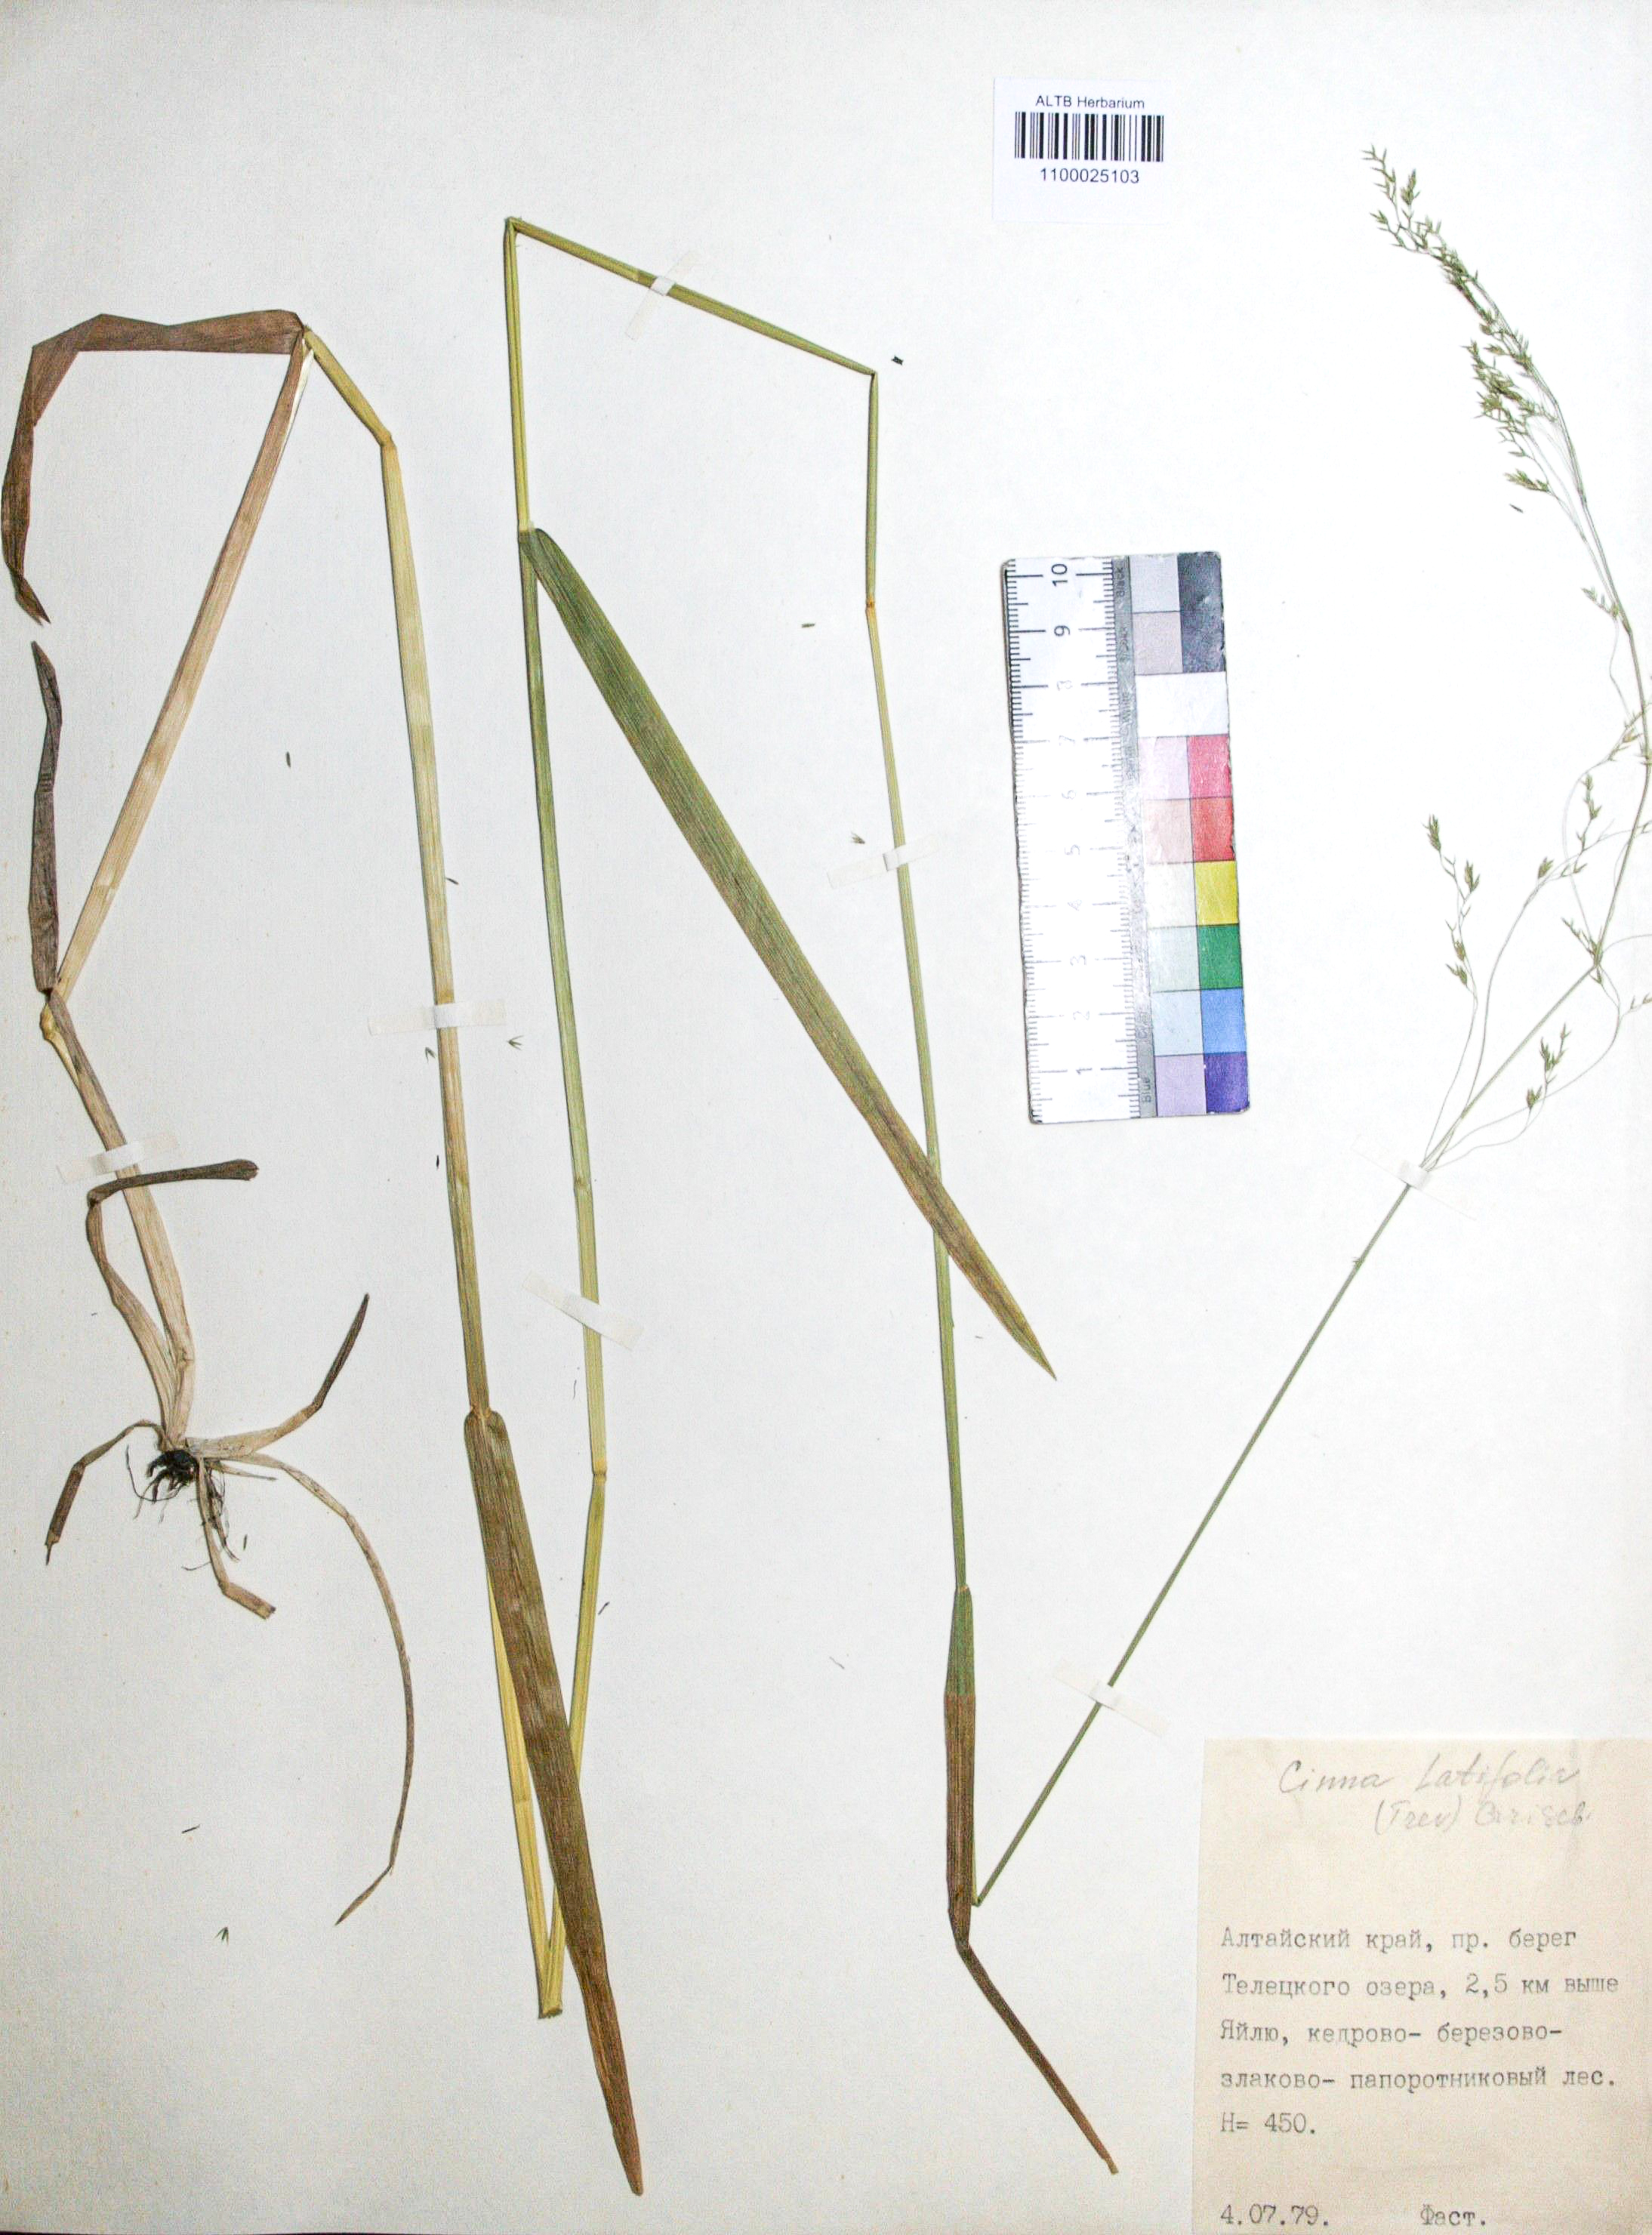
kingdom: Plantae
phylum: Tracheophyta
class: Liliopsida
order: Poales
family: Poaceae
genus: Cinna
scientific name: Cinna latifolia
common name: Drooping woodreed
